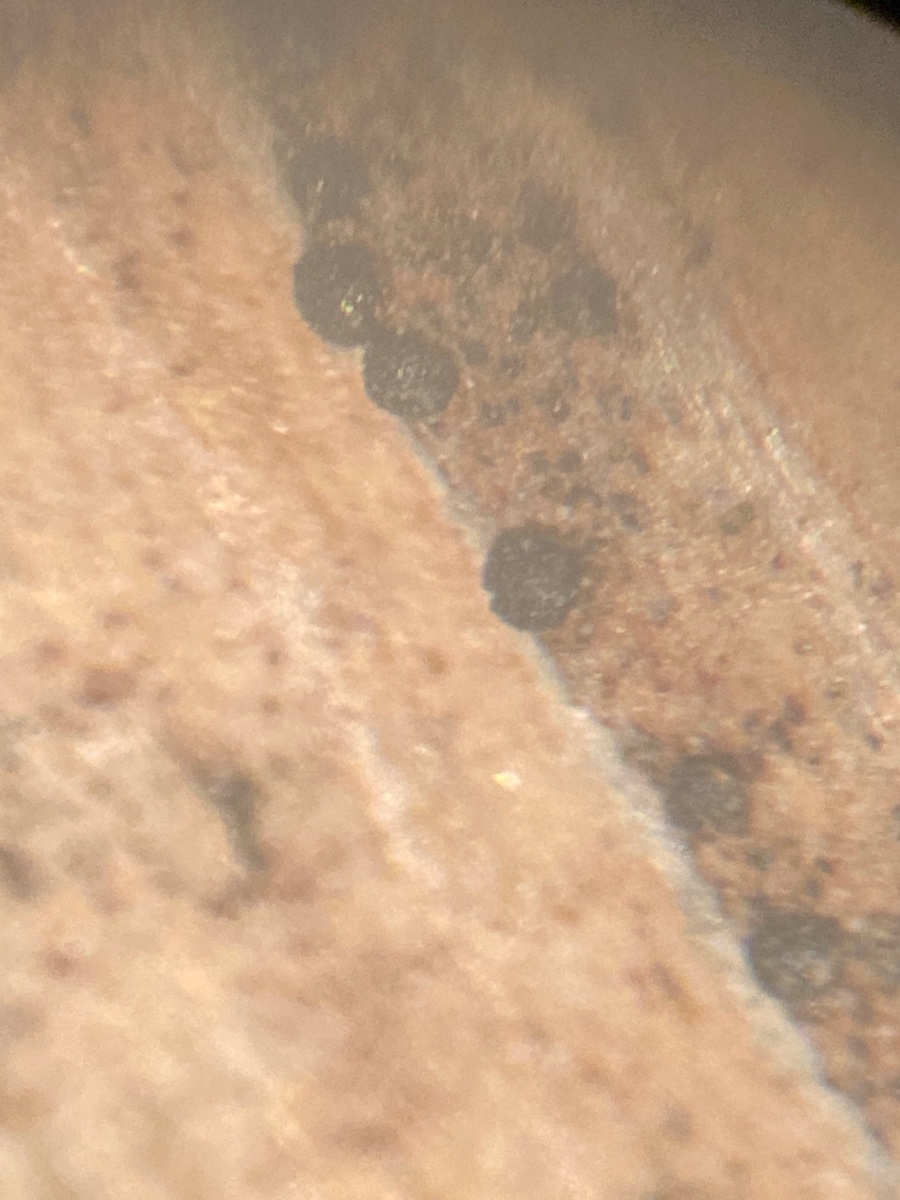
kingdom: Fungi
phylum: Basidiomycota
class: Wallemiomycetes
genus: Bartheletia
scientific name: Bartheletia paradoxa
